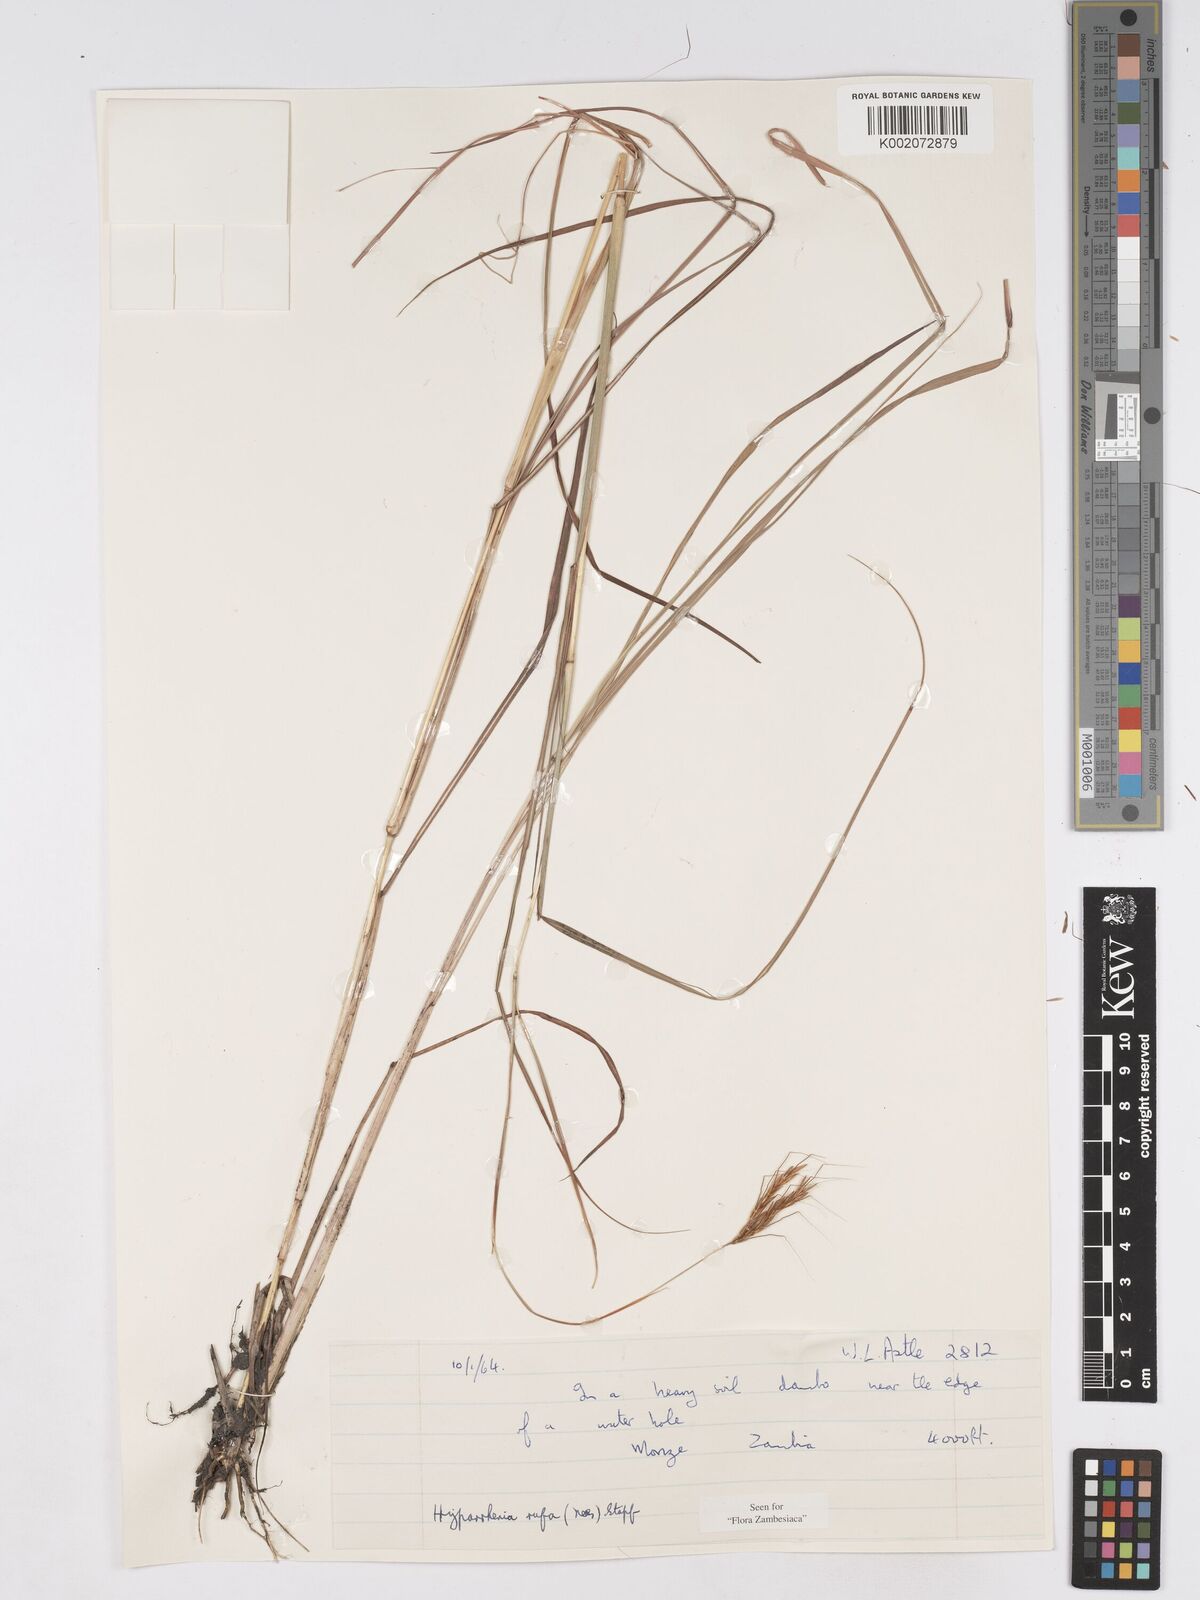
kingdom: Plantae
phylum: Tracheophyta
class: Liliopsida
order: Poales
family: Poaceae
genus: Hyparrhenia
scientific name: Hyparrhenia rufa
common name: Jaraguagrass
